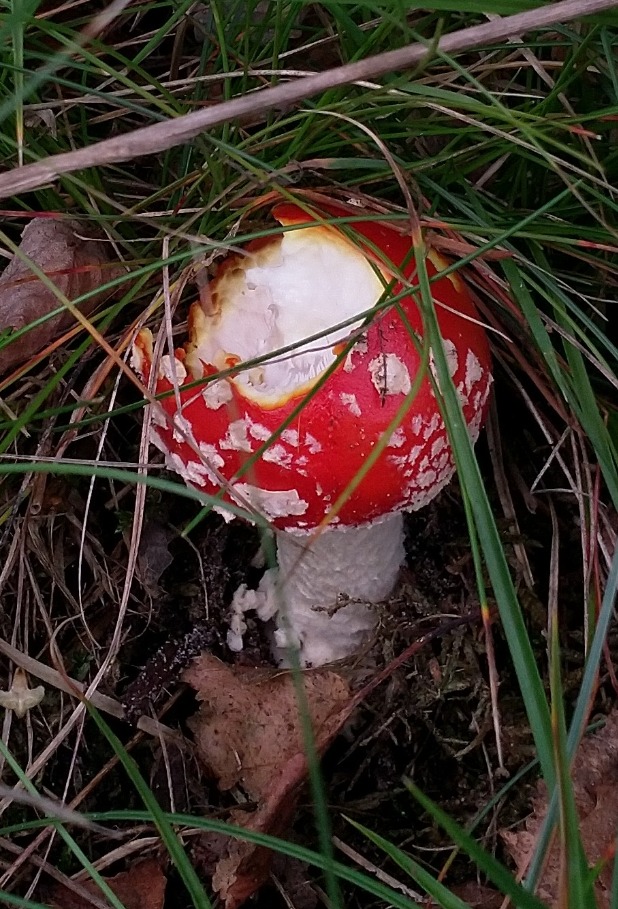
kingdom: Fungi
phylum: Basidiomycota
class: Agaricomycetes
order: Agaricales
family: Amanitaceae
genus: Amanita
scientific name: Amanita muscaria
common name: Rød fluesvamp
